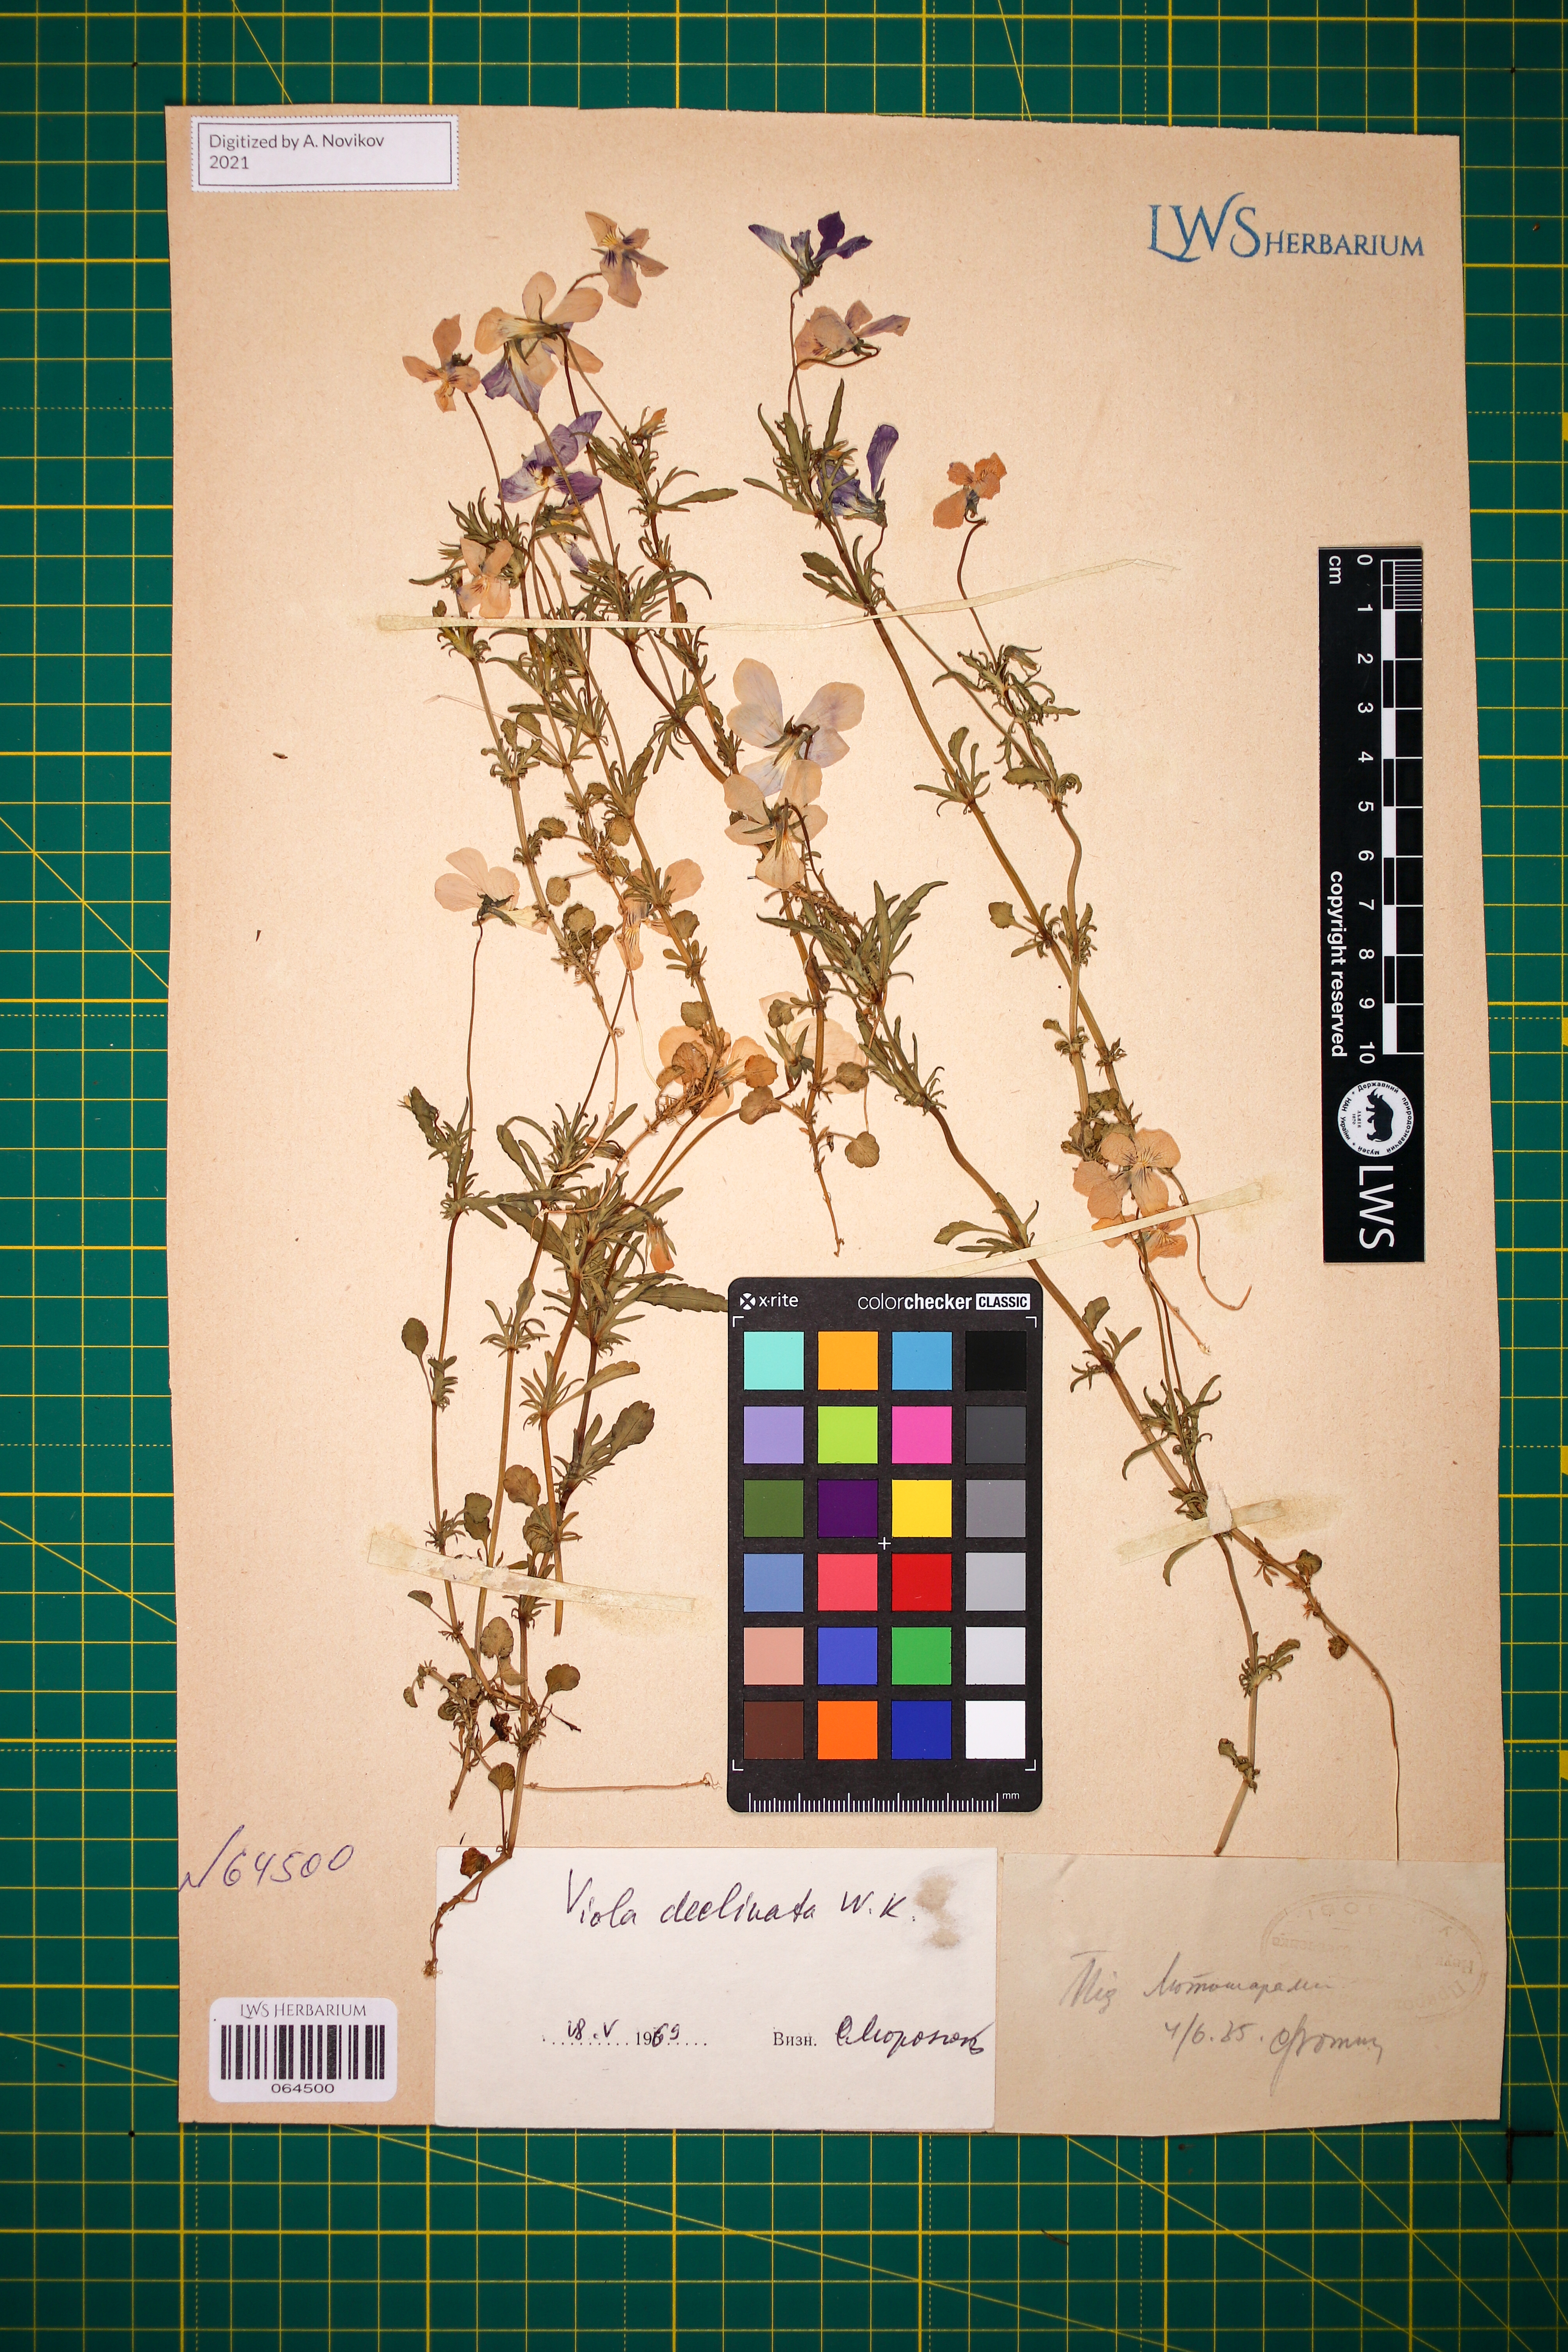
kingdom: Plantae
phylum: Tracheophyta
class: Magnoliopsida
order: Malpighiales
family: Violaceae
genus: Viola
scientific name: Viola declinata
